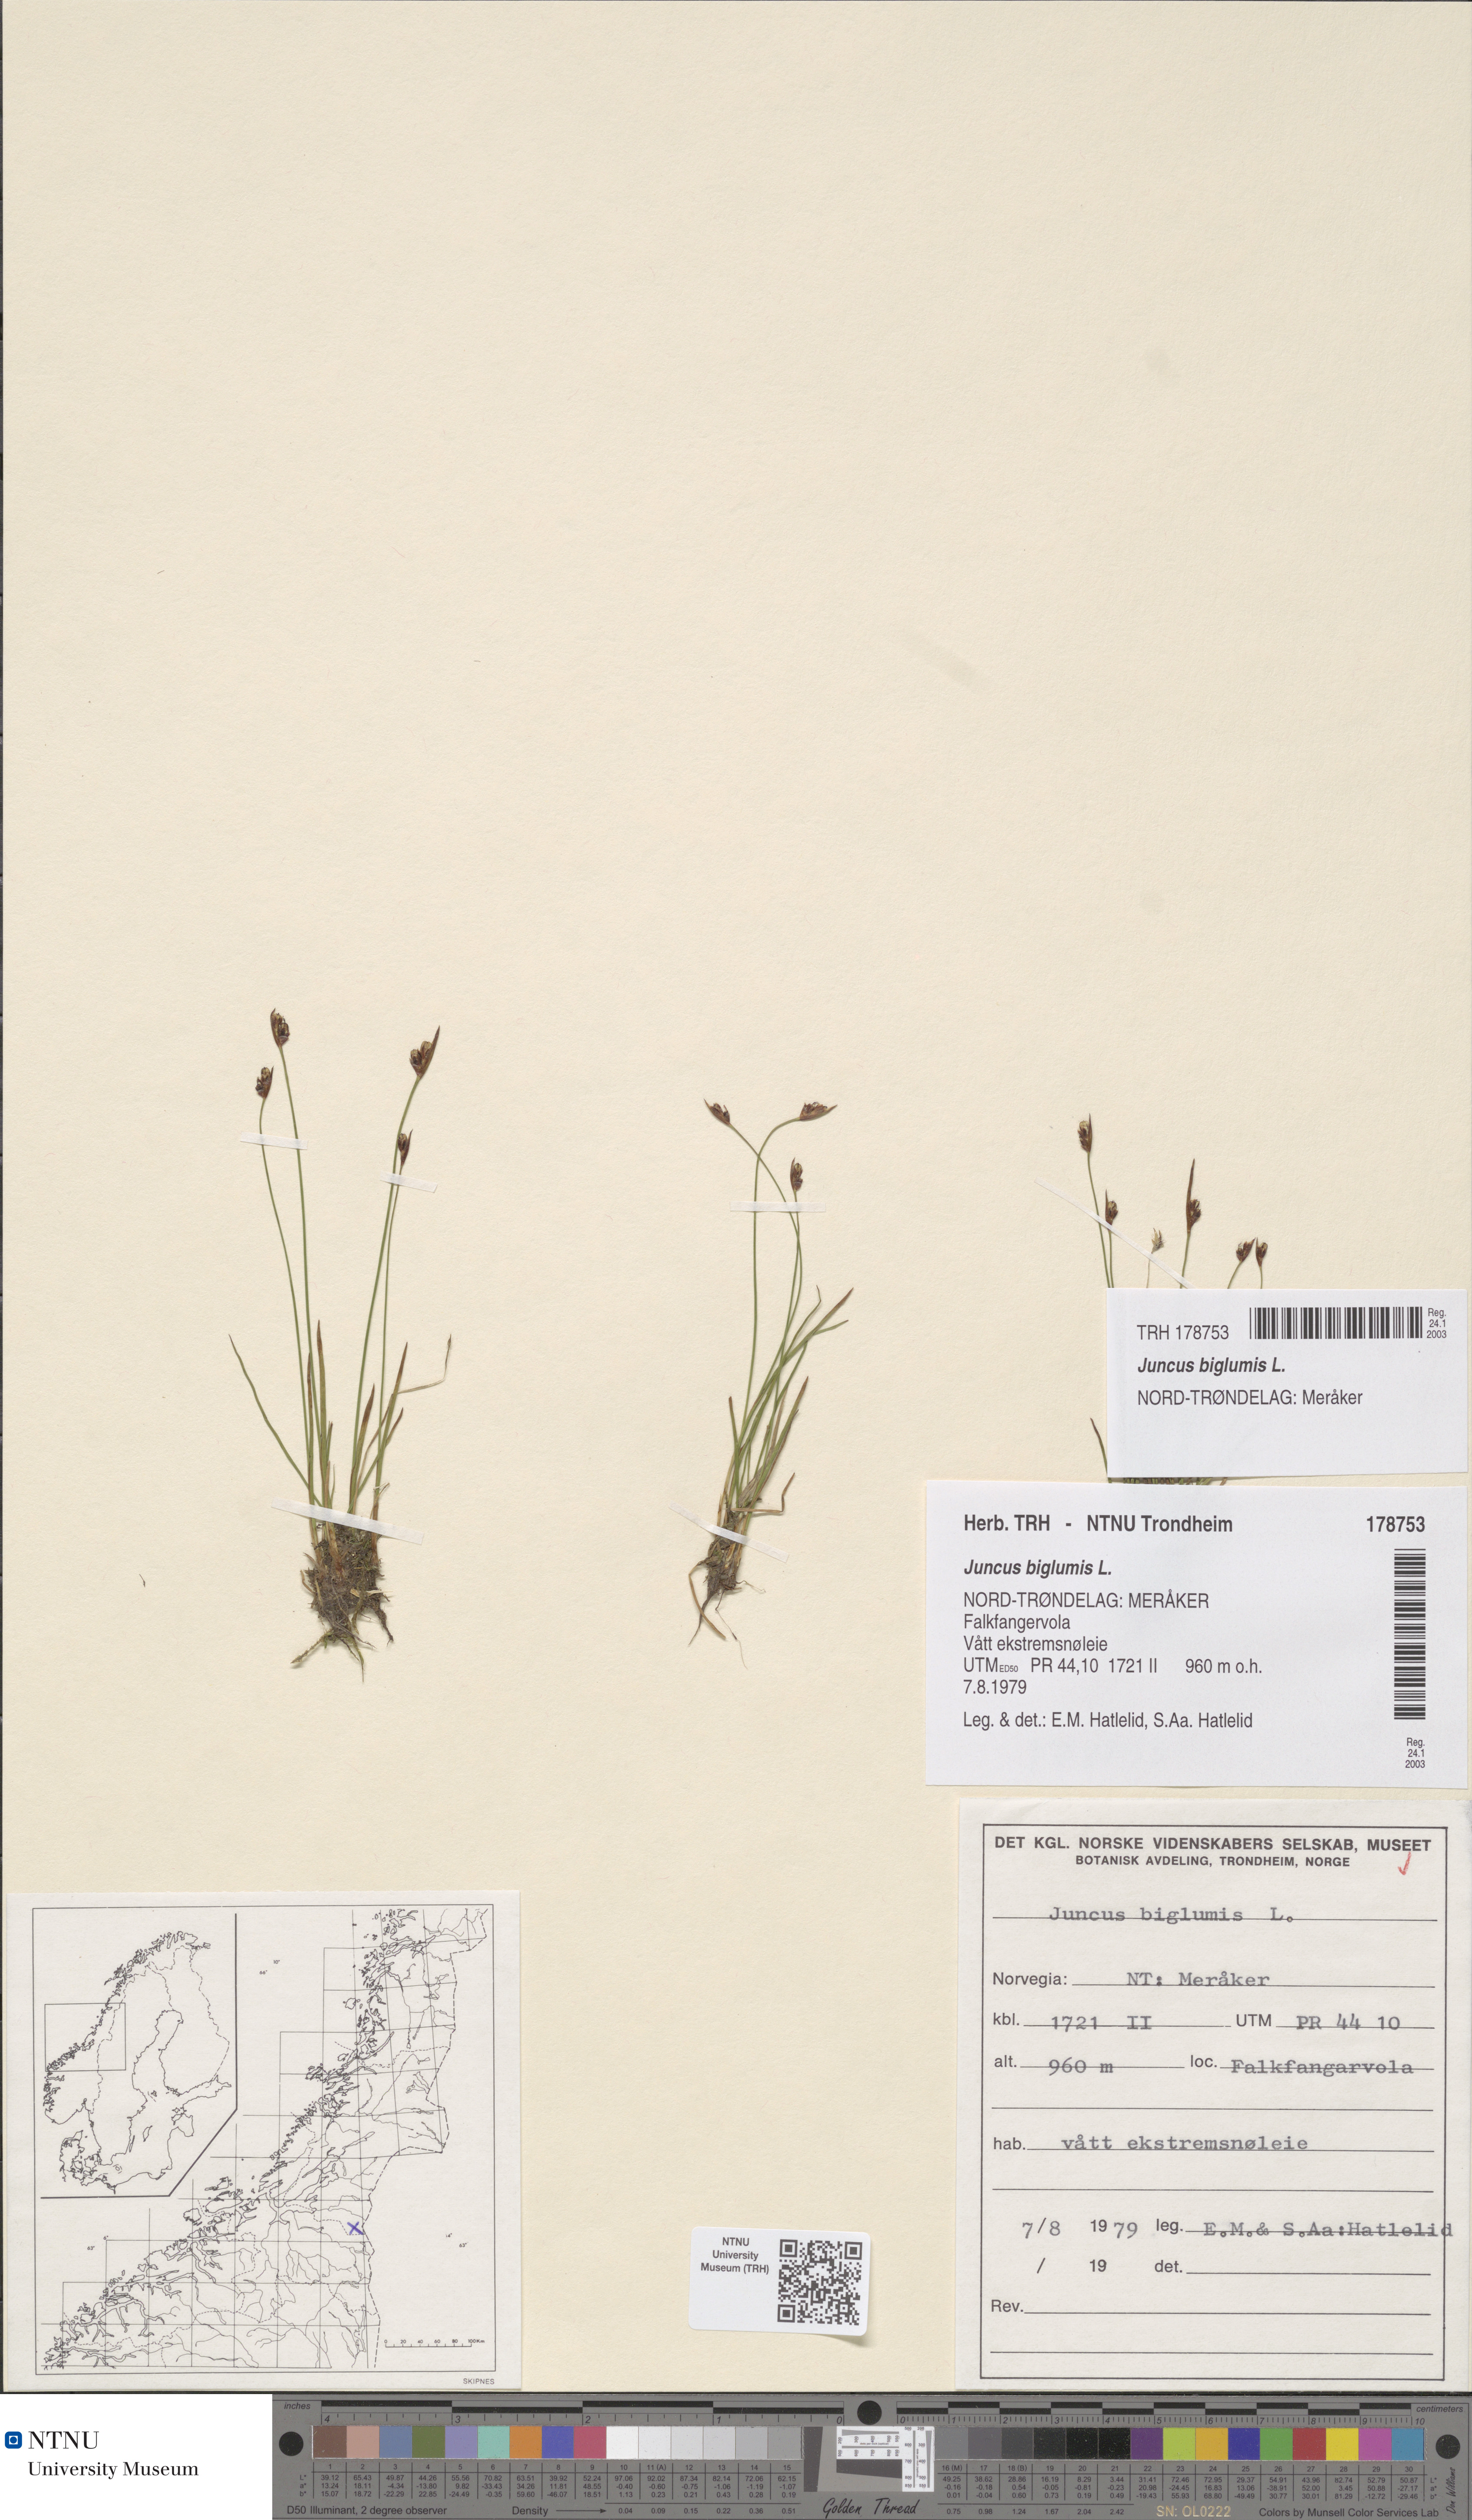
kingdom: Plantae
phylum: Tracheophyta
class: Liliopsida
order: Poales
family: Juncaceae
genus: Juncus
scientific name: Juncus biglumis
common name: Two-flowered rush
